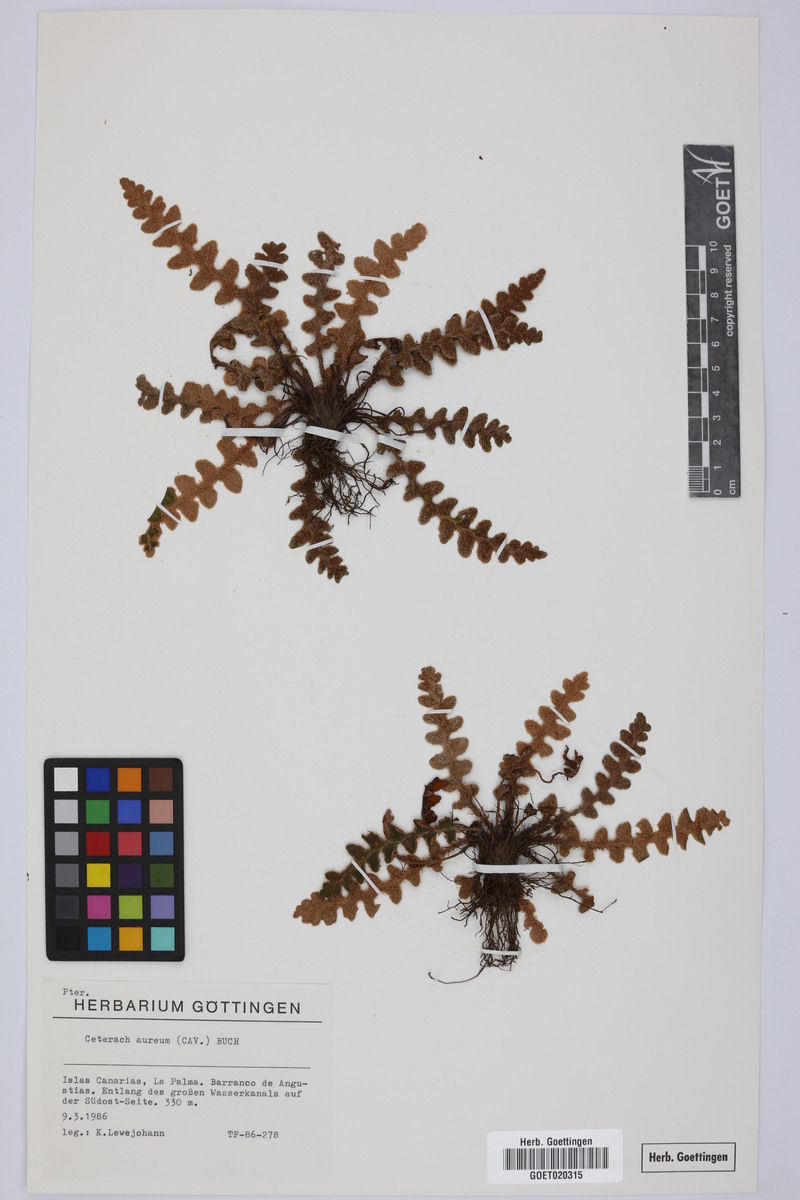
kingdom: Plantae
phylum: Tracheophyta
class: Polypodiopsida
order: Polypodiales
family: Aspleniaceae
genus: Asplenium
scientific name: Asplenium aureum
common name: Golden rustyback fern
